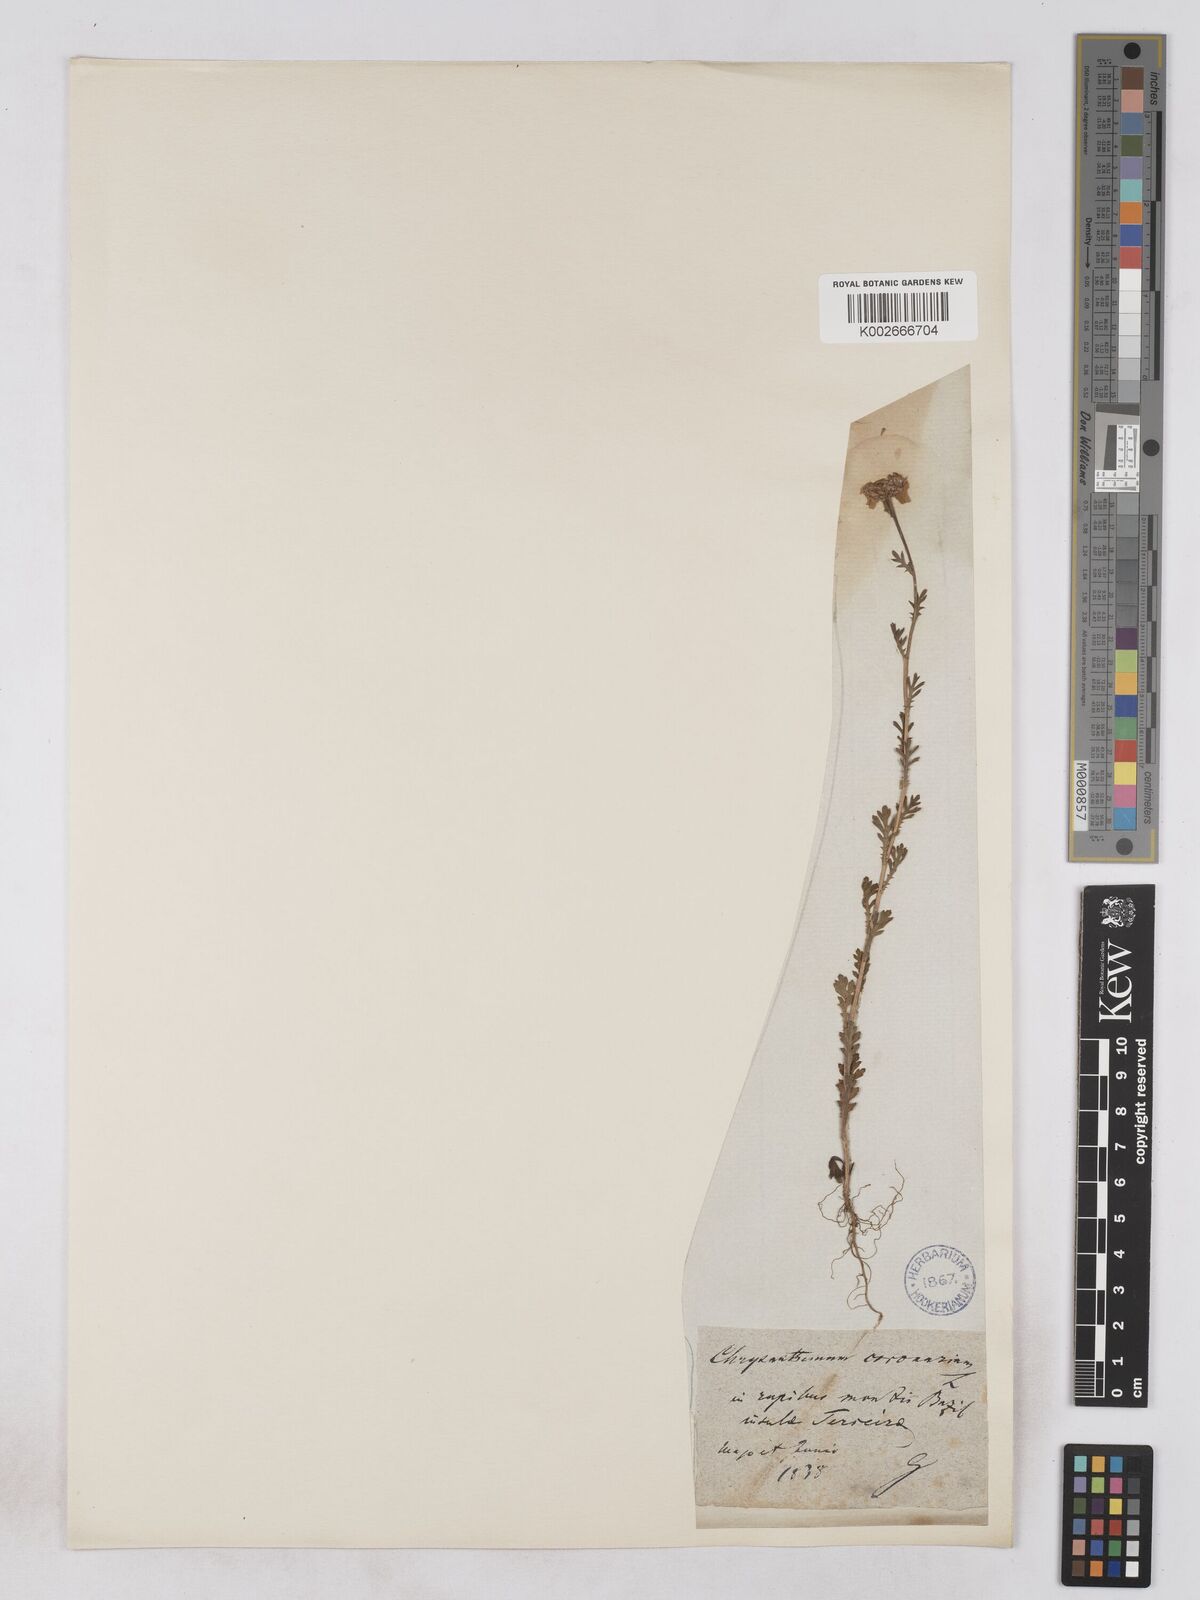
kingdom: Plantae
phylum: Tracheophyta
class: Magnoliopsida
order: Asterales
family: Asteraceae
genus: Glebionis
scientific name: Glebionis coronaria
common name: Crowndaisy
